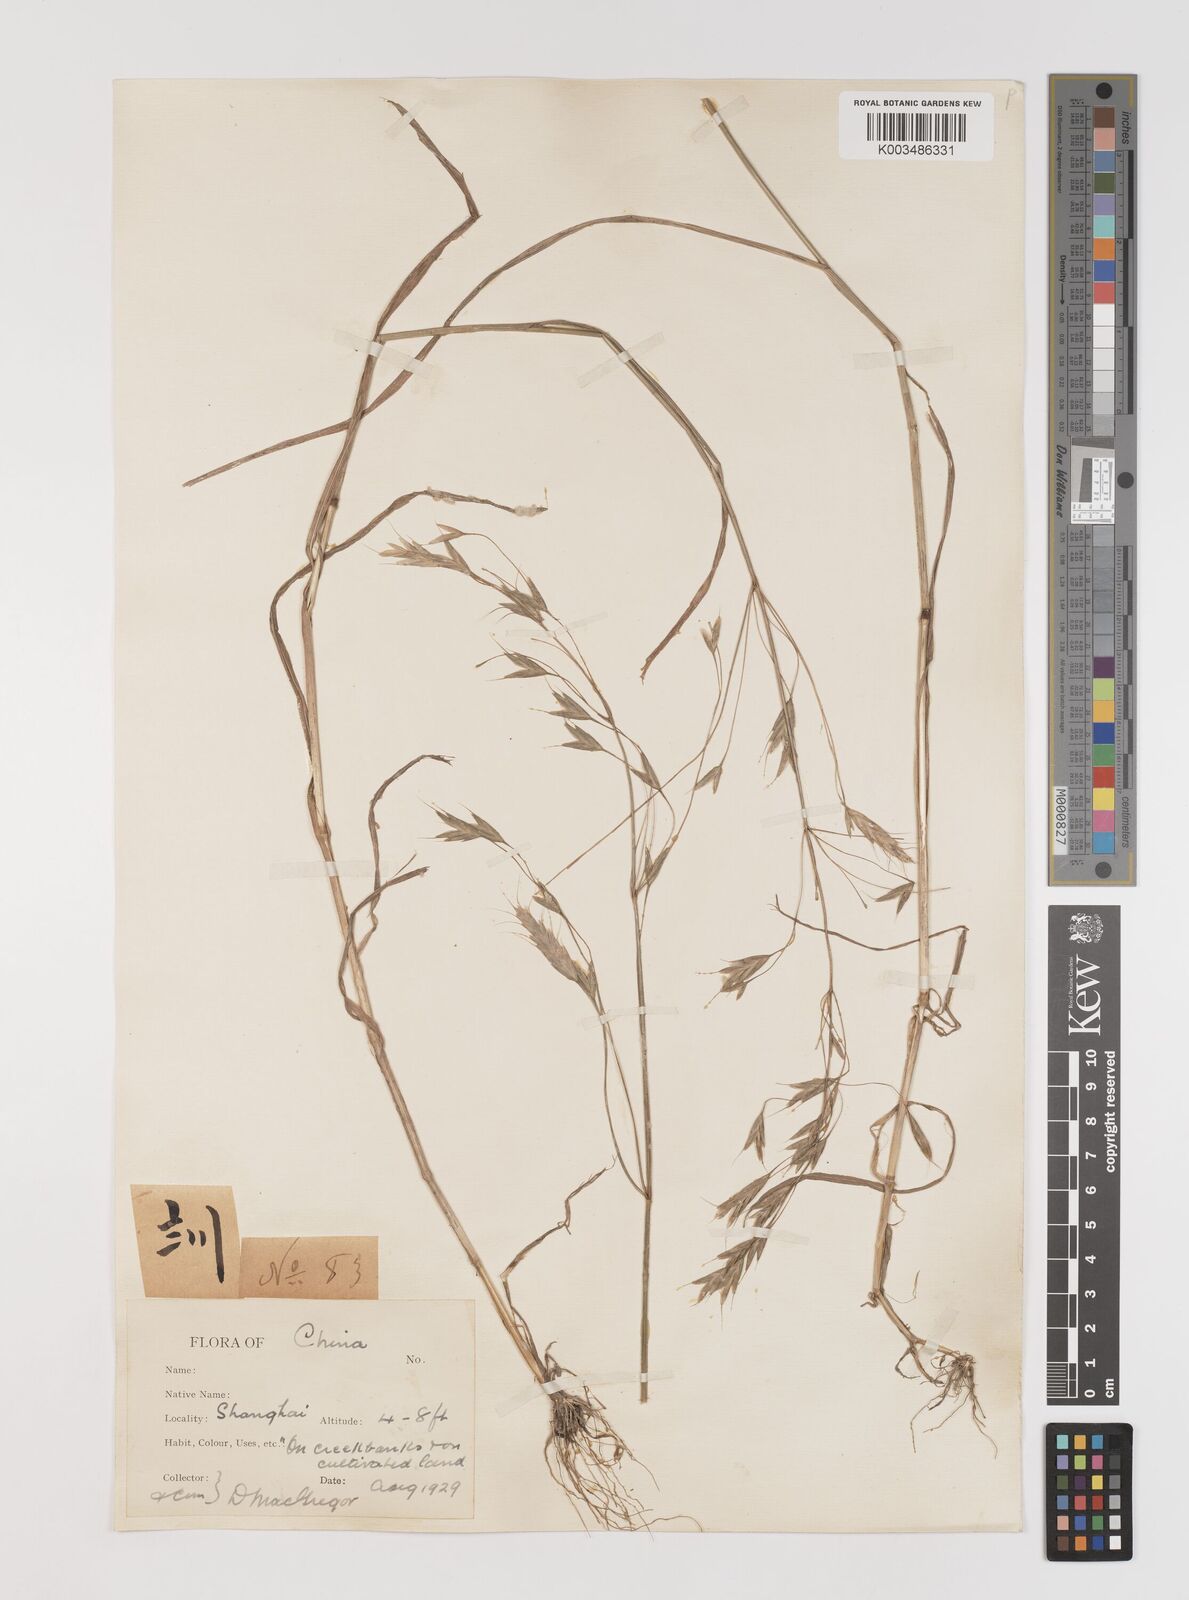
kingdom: Plantae
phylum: Tracheophyta
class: Liliopsida
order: Poales
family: Poaceae
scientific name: Poaceae
